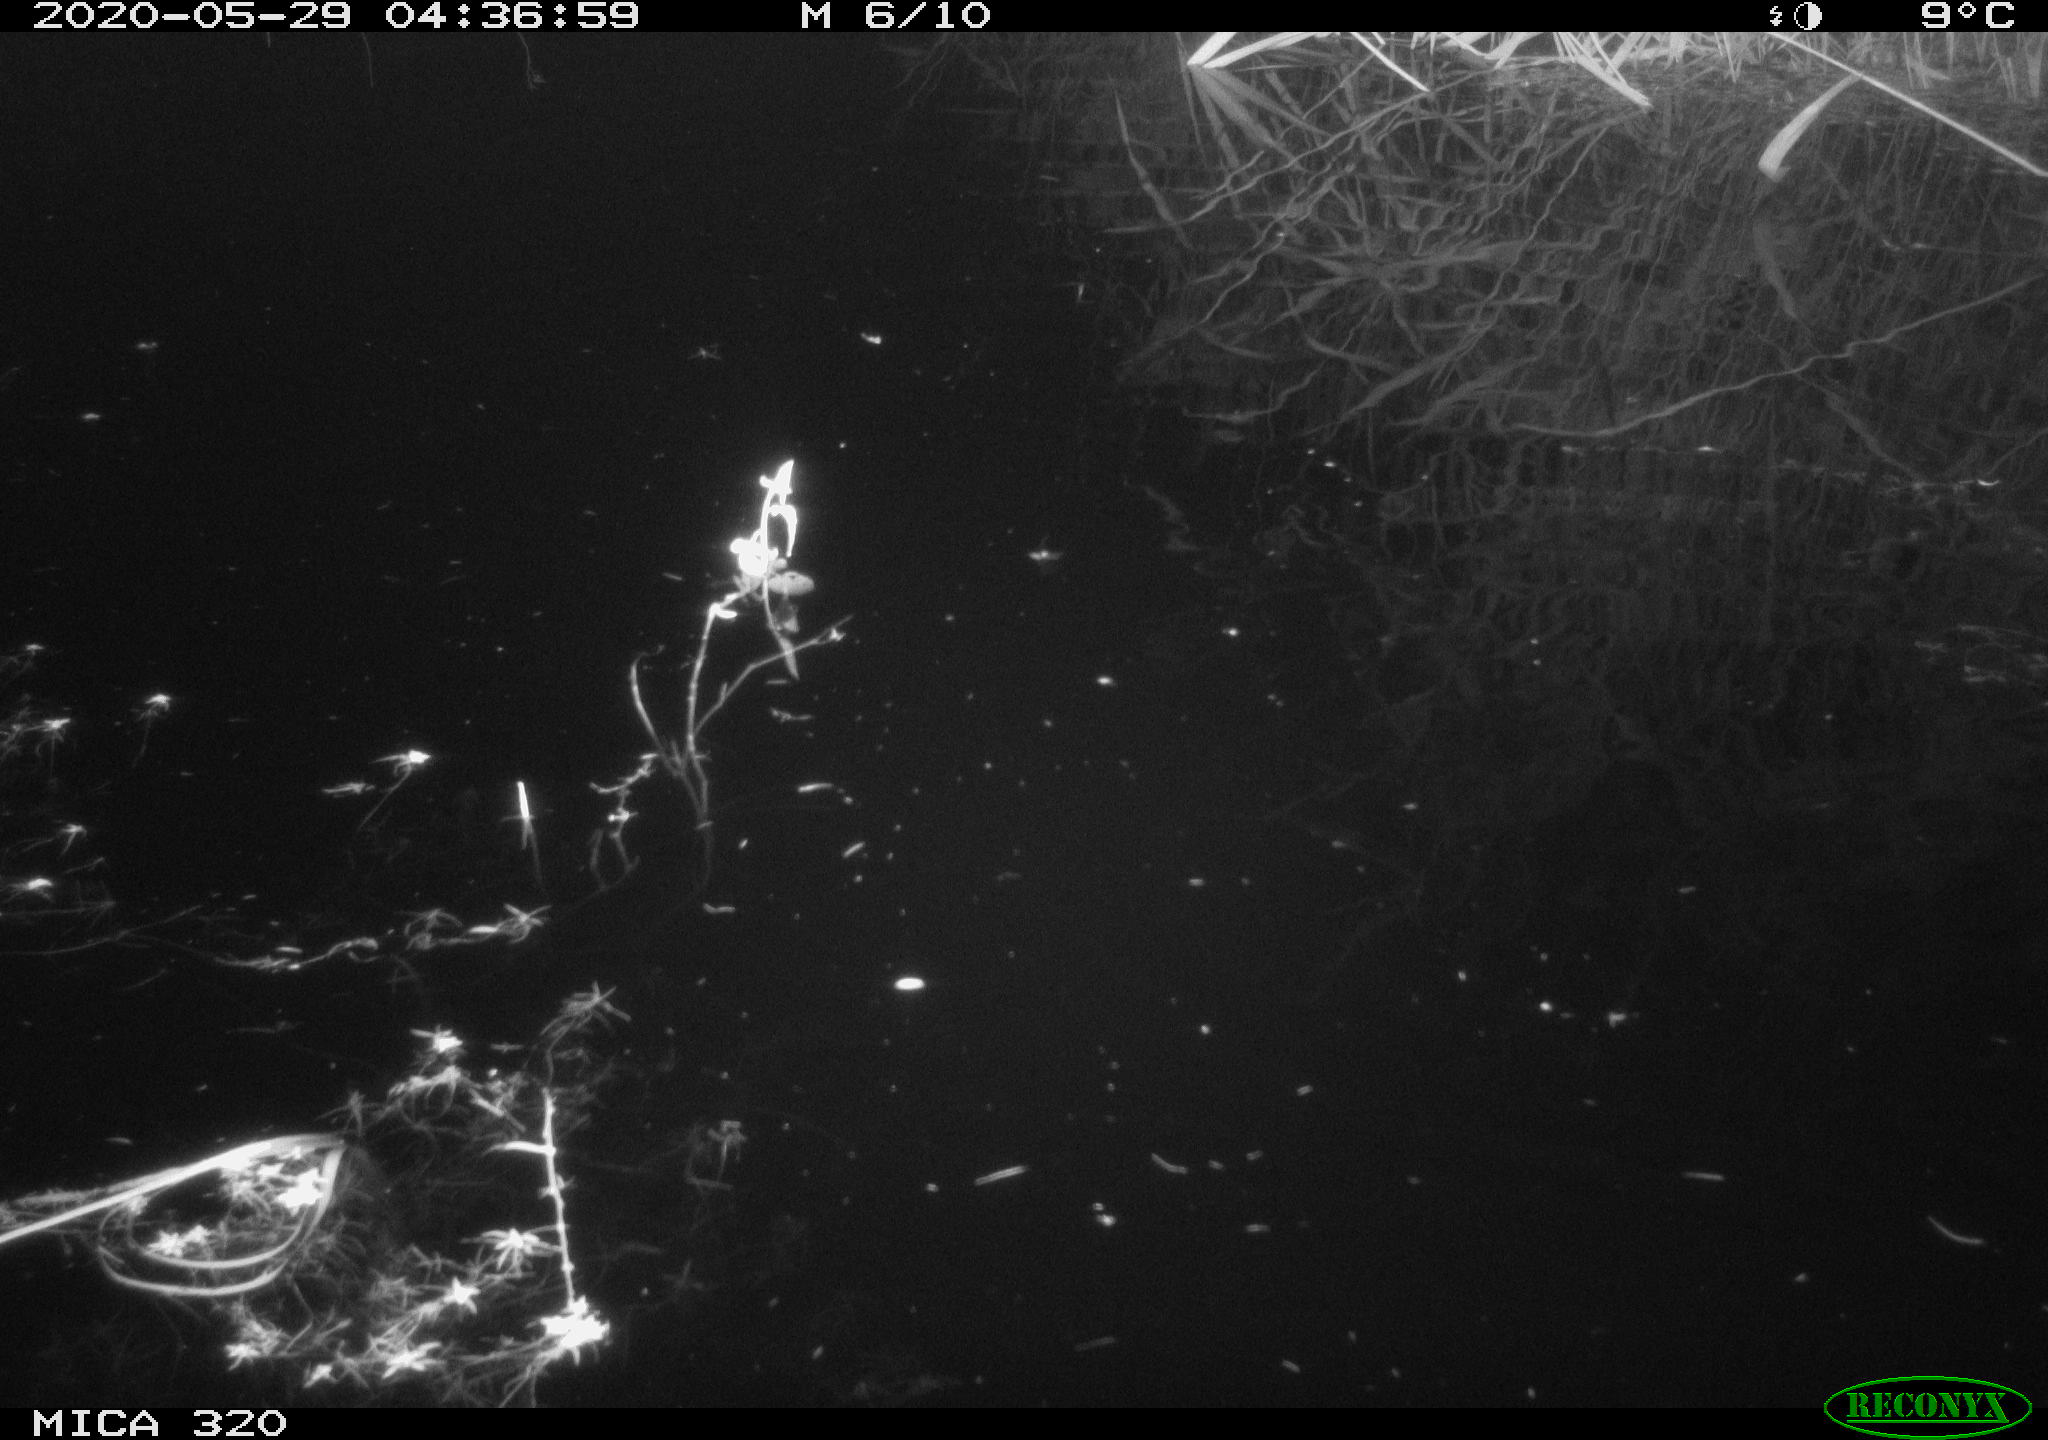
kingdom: Animalia
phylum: Chordata
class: Aves
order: Anseriformes
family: Anatidae
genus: Anas
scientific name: Anas platyrhynchos
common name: Mallard
